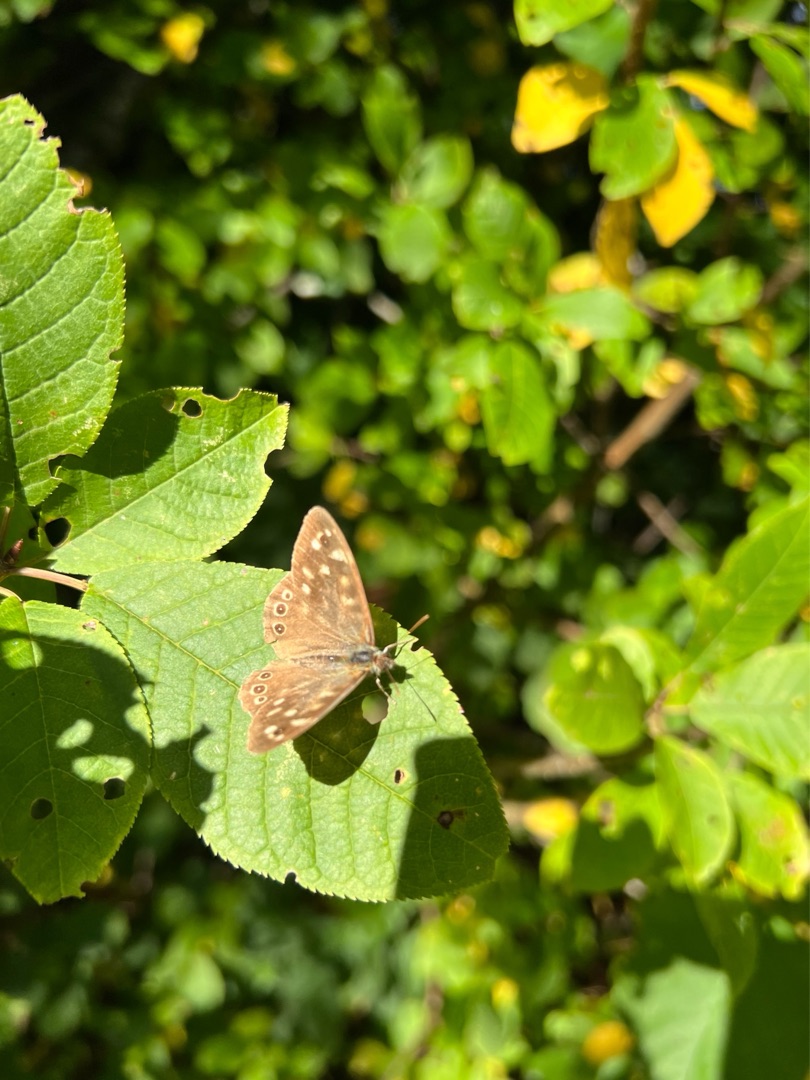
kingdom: Animalia
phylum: Arthropoda
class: Insecta
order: Lepidoptera
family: Nymphalidae
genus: Pararge
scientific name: Pararge aegeria
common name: Skovrandøje
